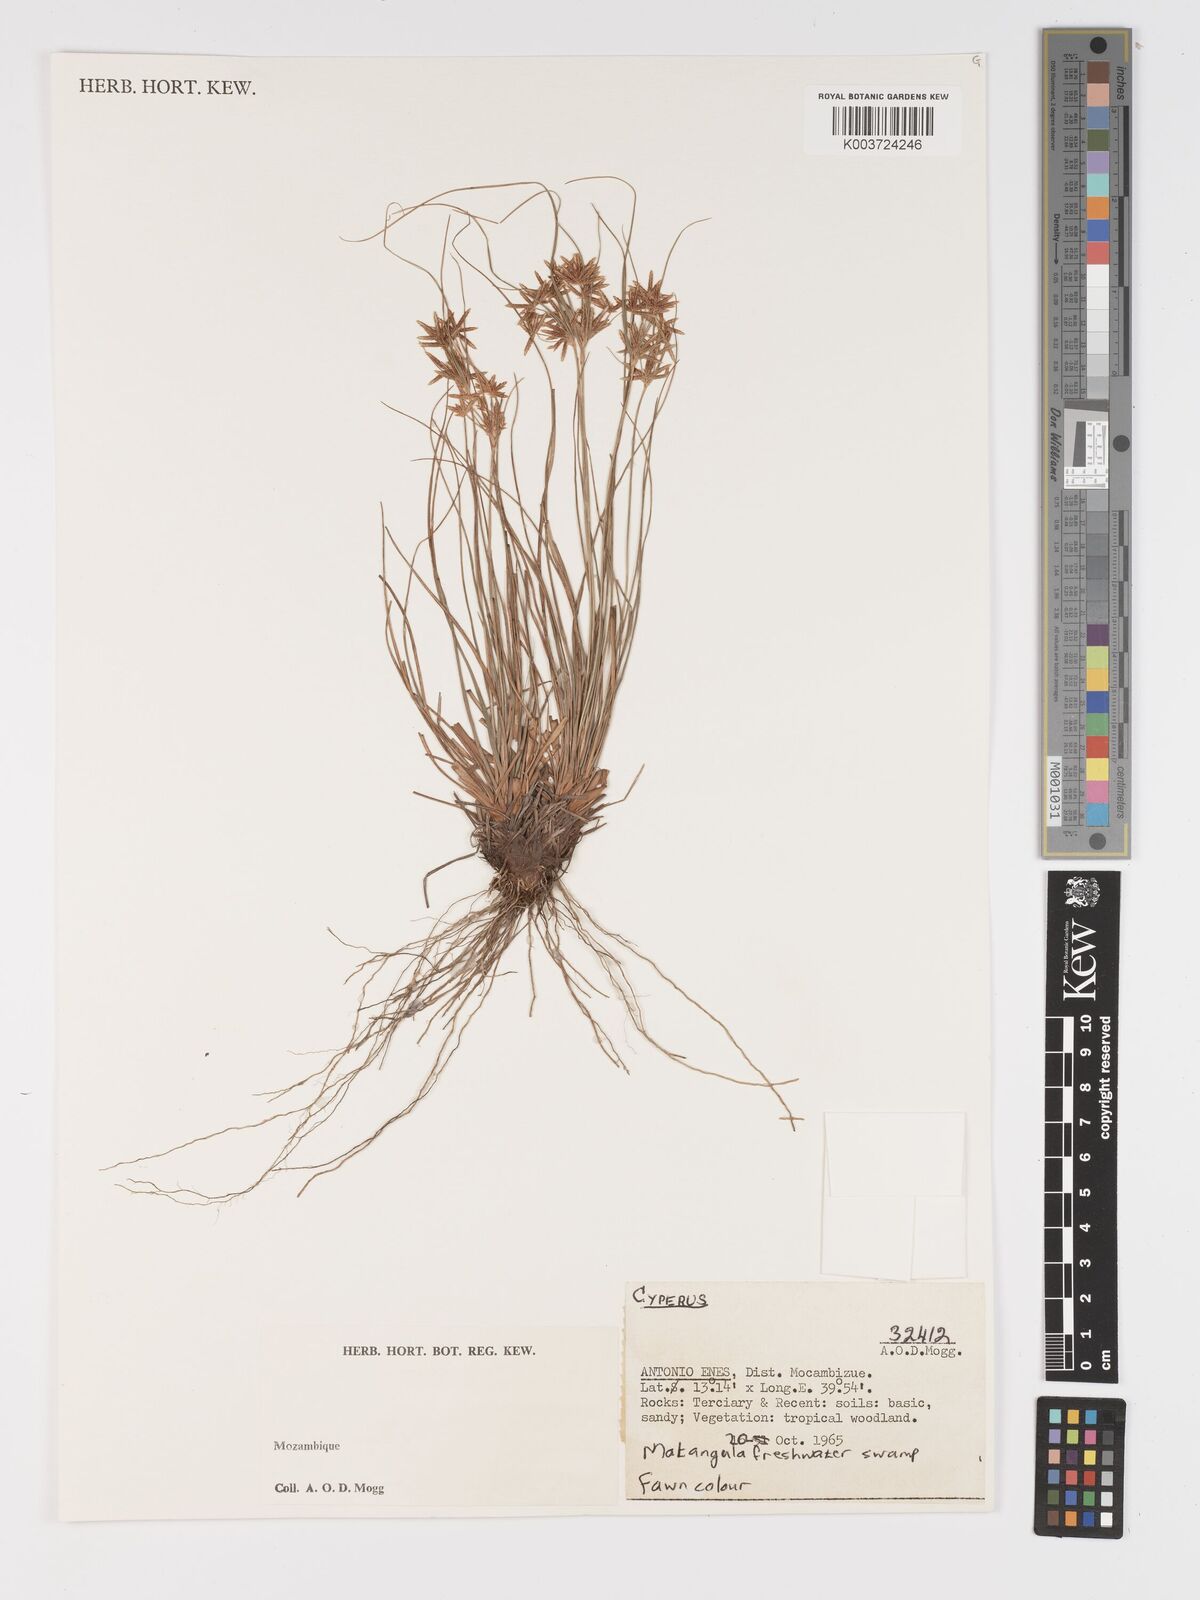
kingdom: Plantae
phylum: Tracheophyta
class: Liliopsida
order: Poales
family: Cyperaceae
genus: Cyperus
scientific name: Cyperus
